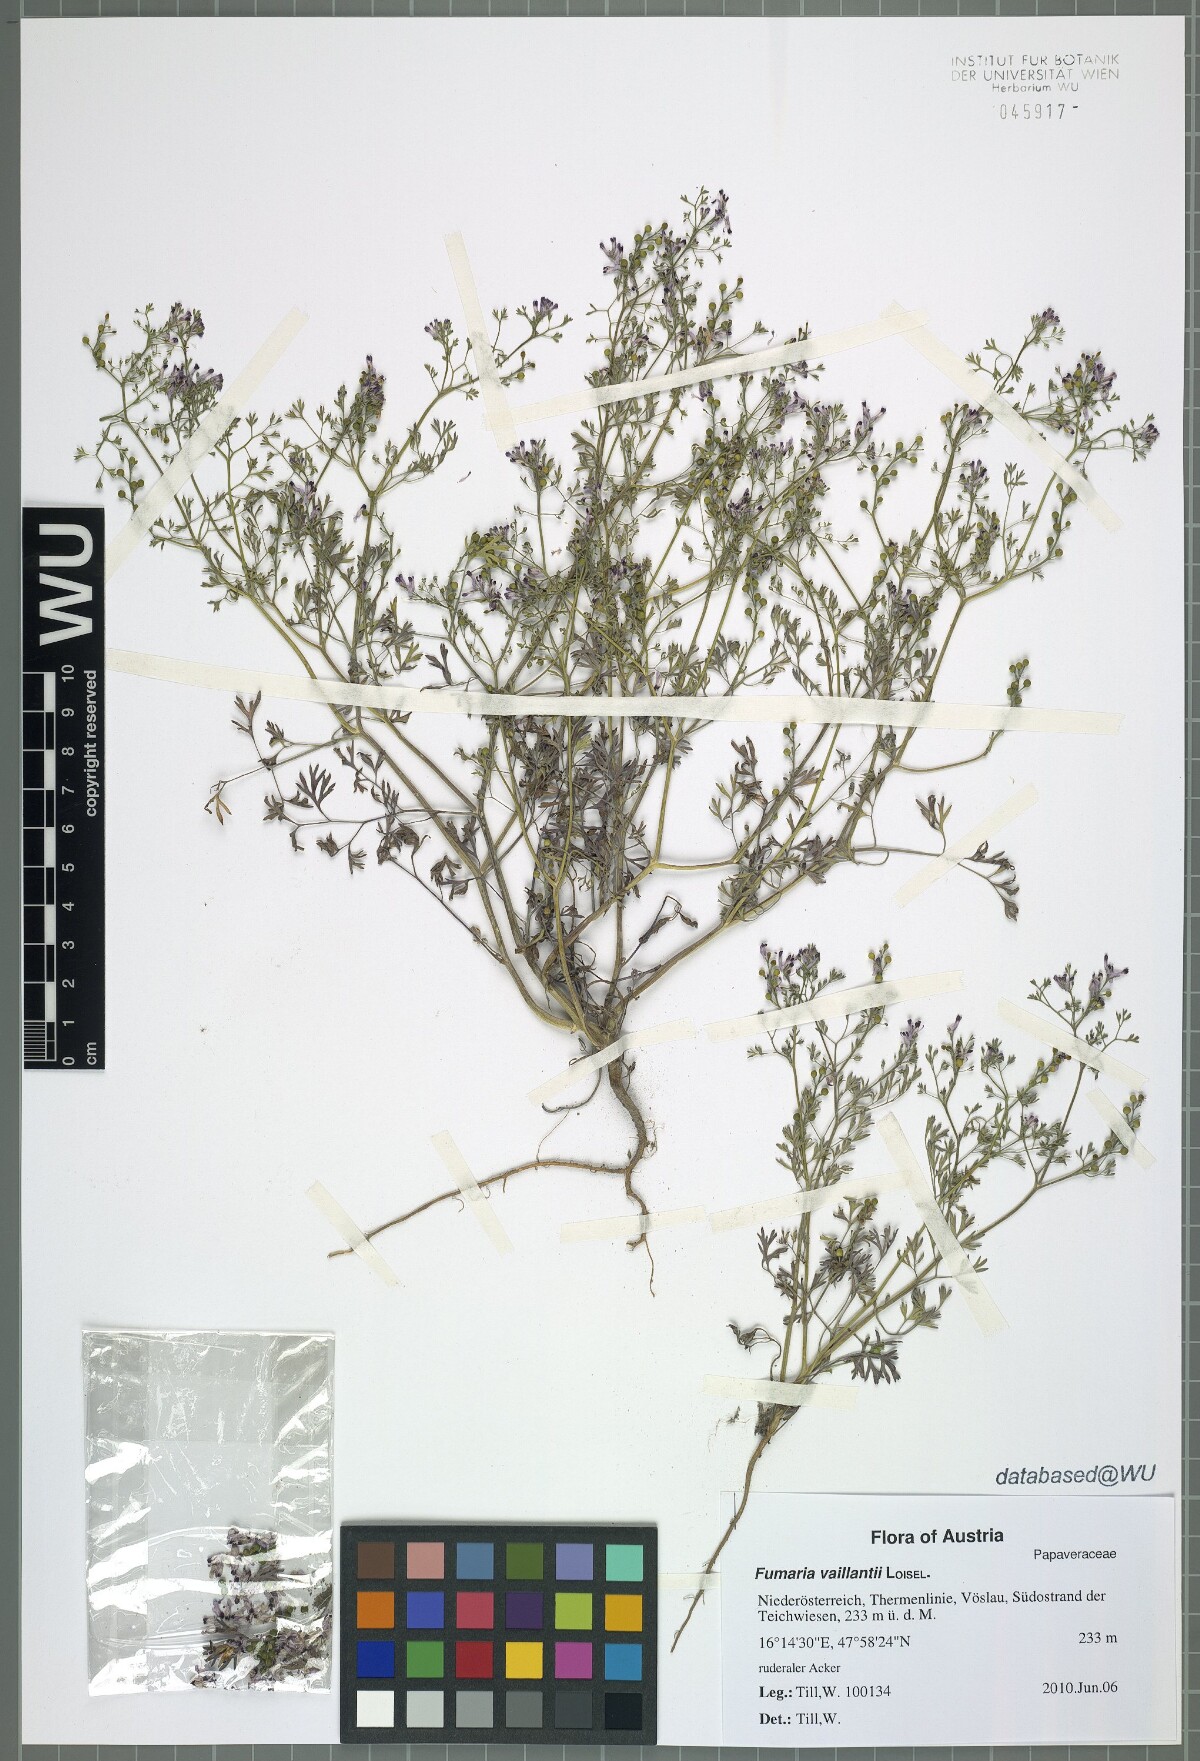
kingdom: Plantae
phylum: Tracheophyta
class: Magnoliopsida
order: Ranunculales
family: Papaveraceae
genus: Fumaria
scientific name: Fumaria vaillantii
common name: Few-flowered fumitory
